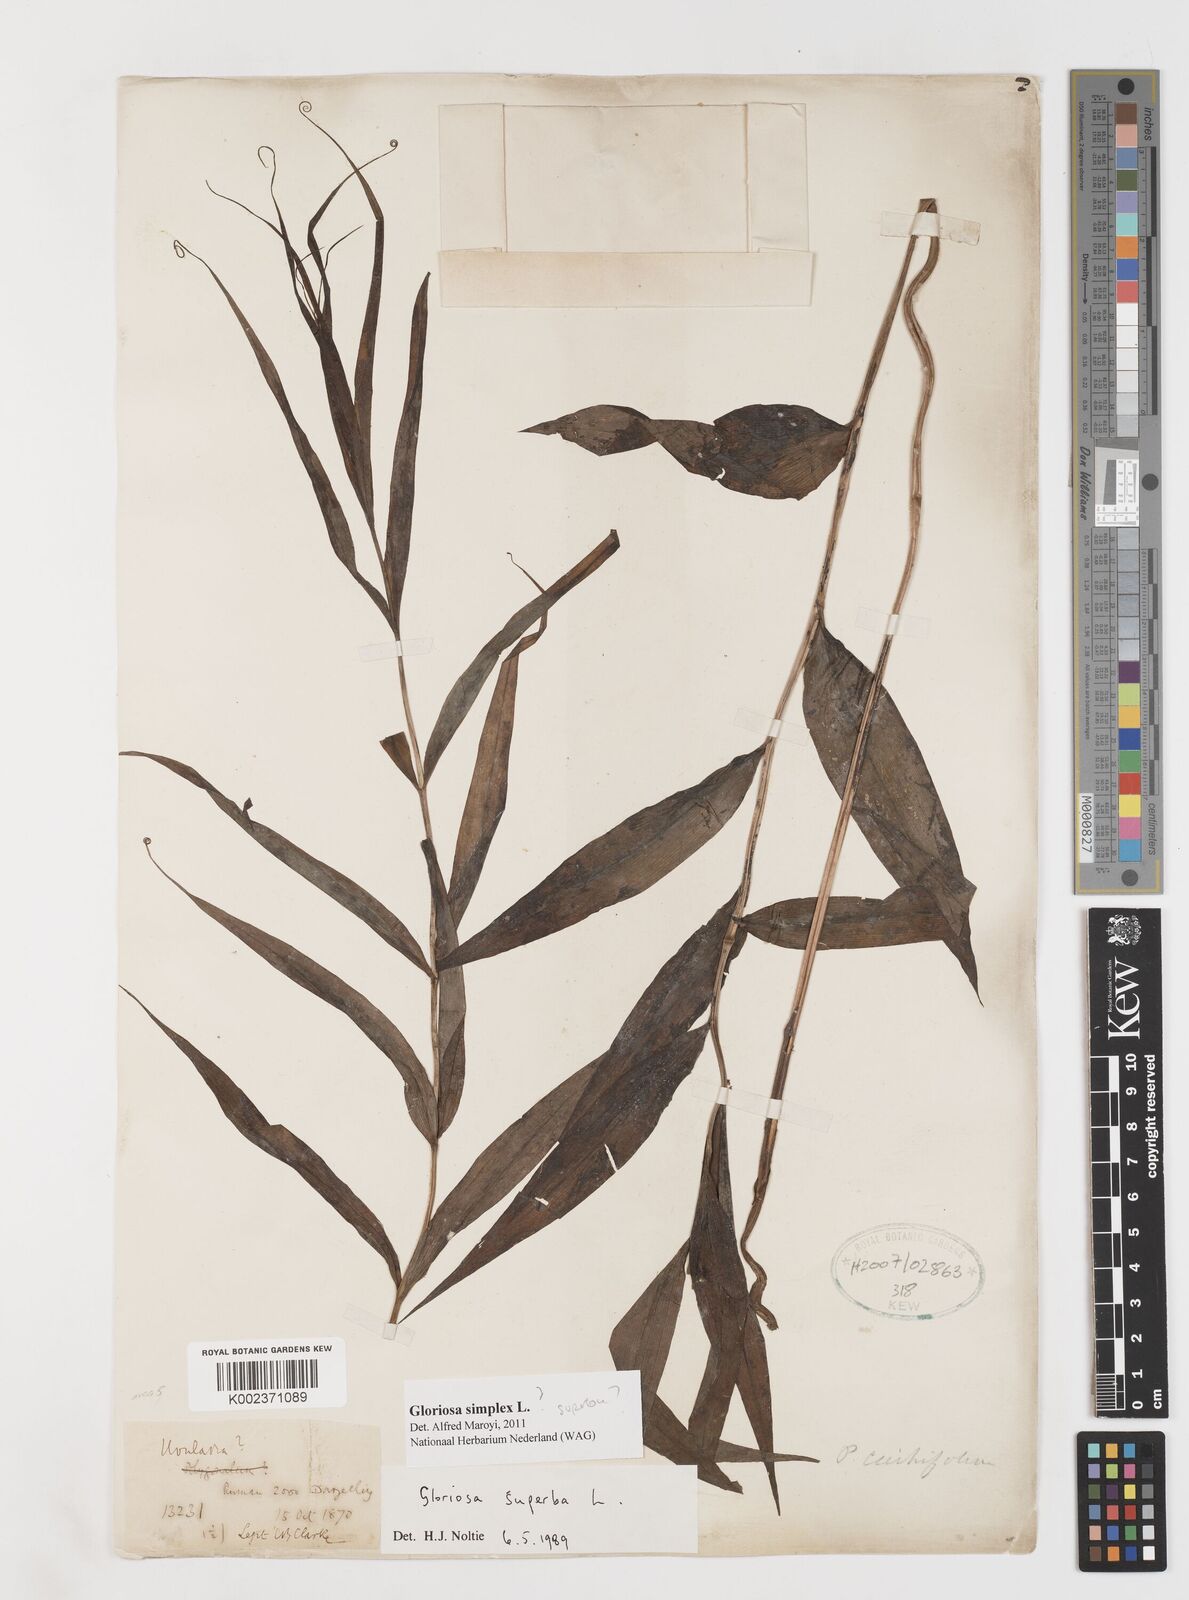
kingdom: Plantae
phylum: Tracheophyta
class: Liliopsida
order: Liliales
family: Colchicaceae
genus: Gloriosa
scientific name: Gloriosa superba
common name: Flame lily
